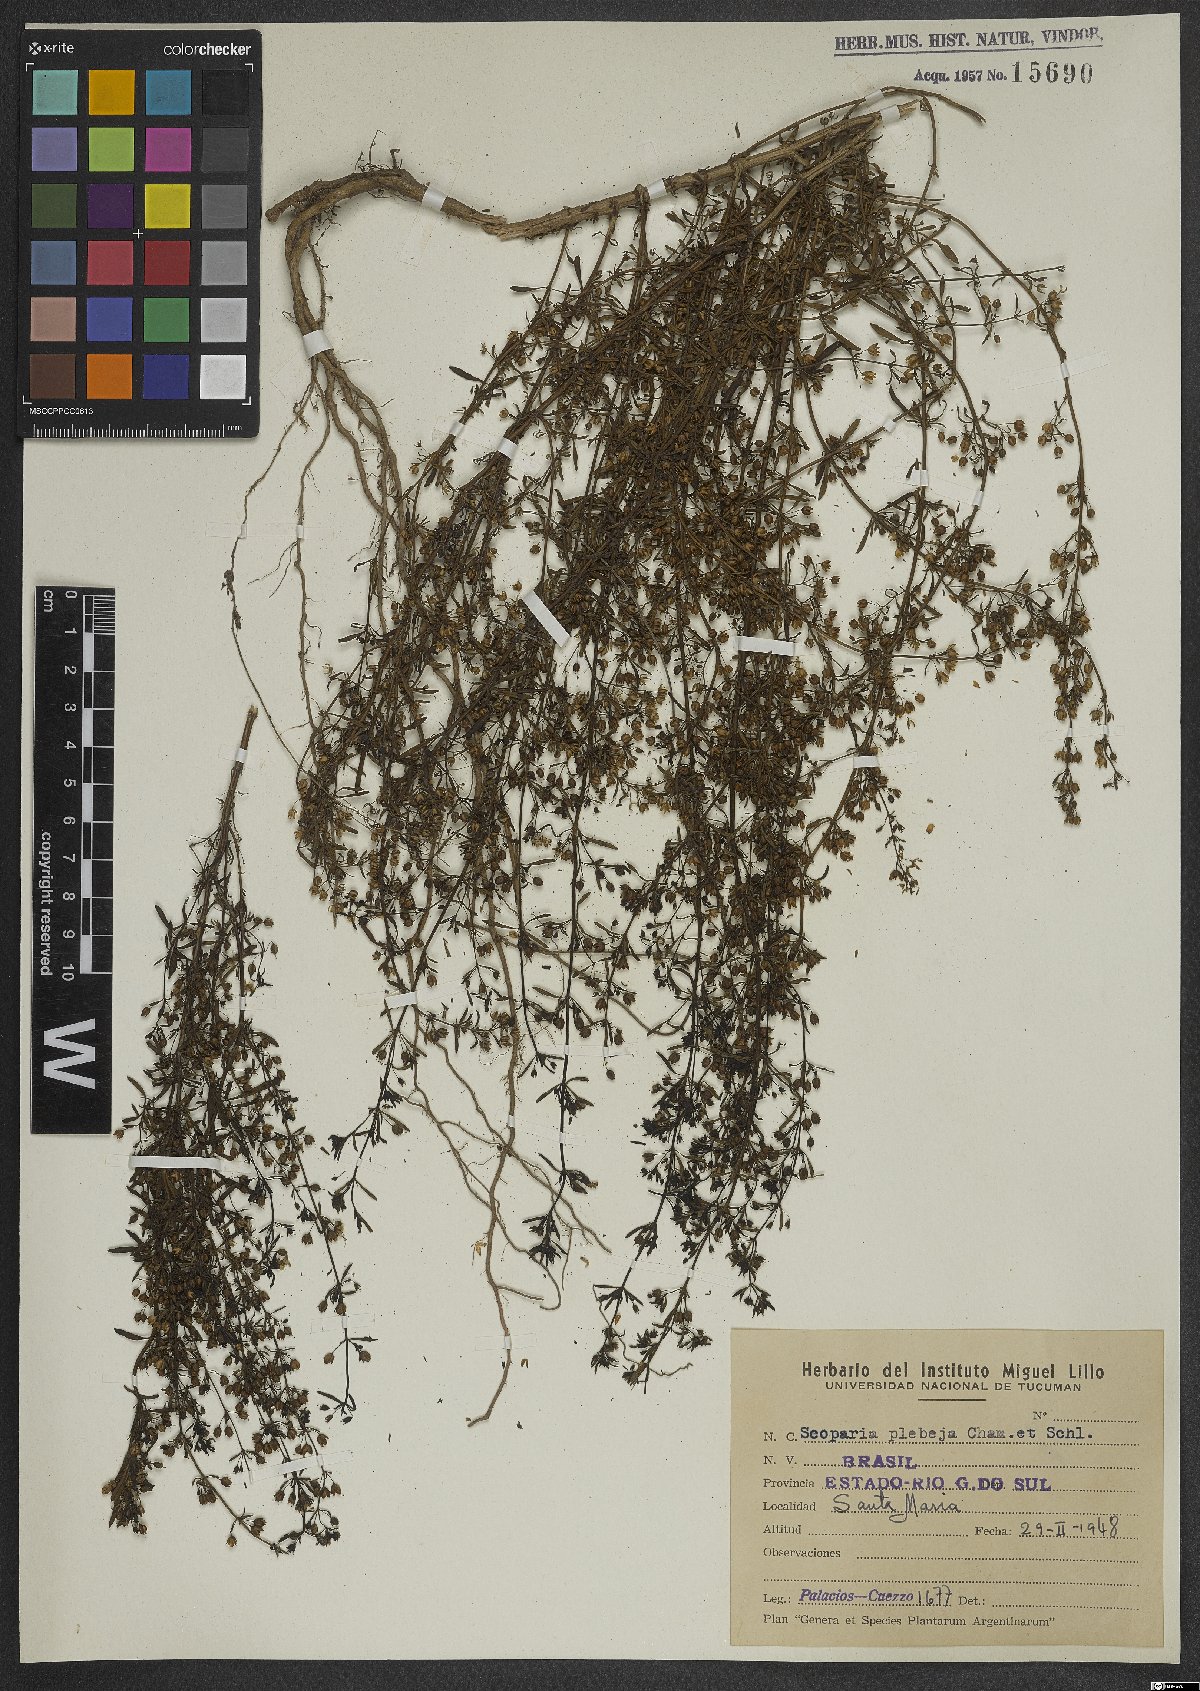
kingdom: Plantae
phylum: Tracheophyta
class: Magnoliopsida
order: Lamiales
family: Plantaginaceae
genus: Scoparia
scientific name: Scoparia ericacea
